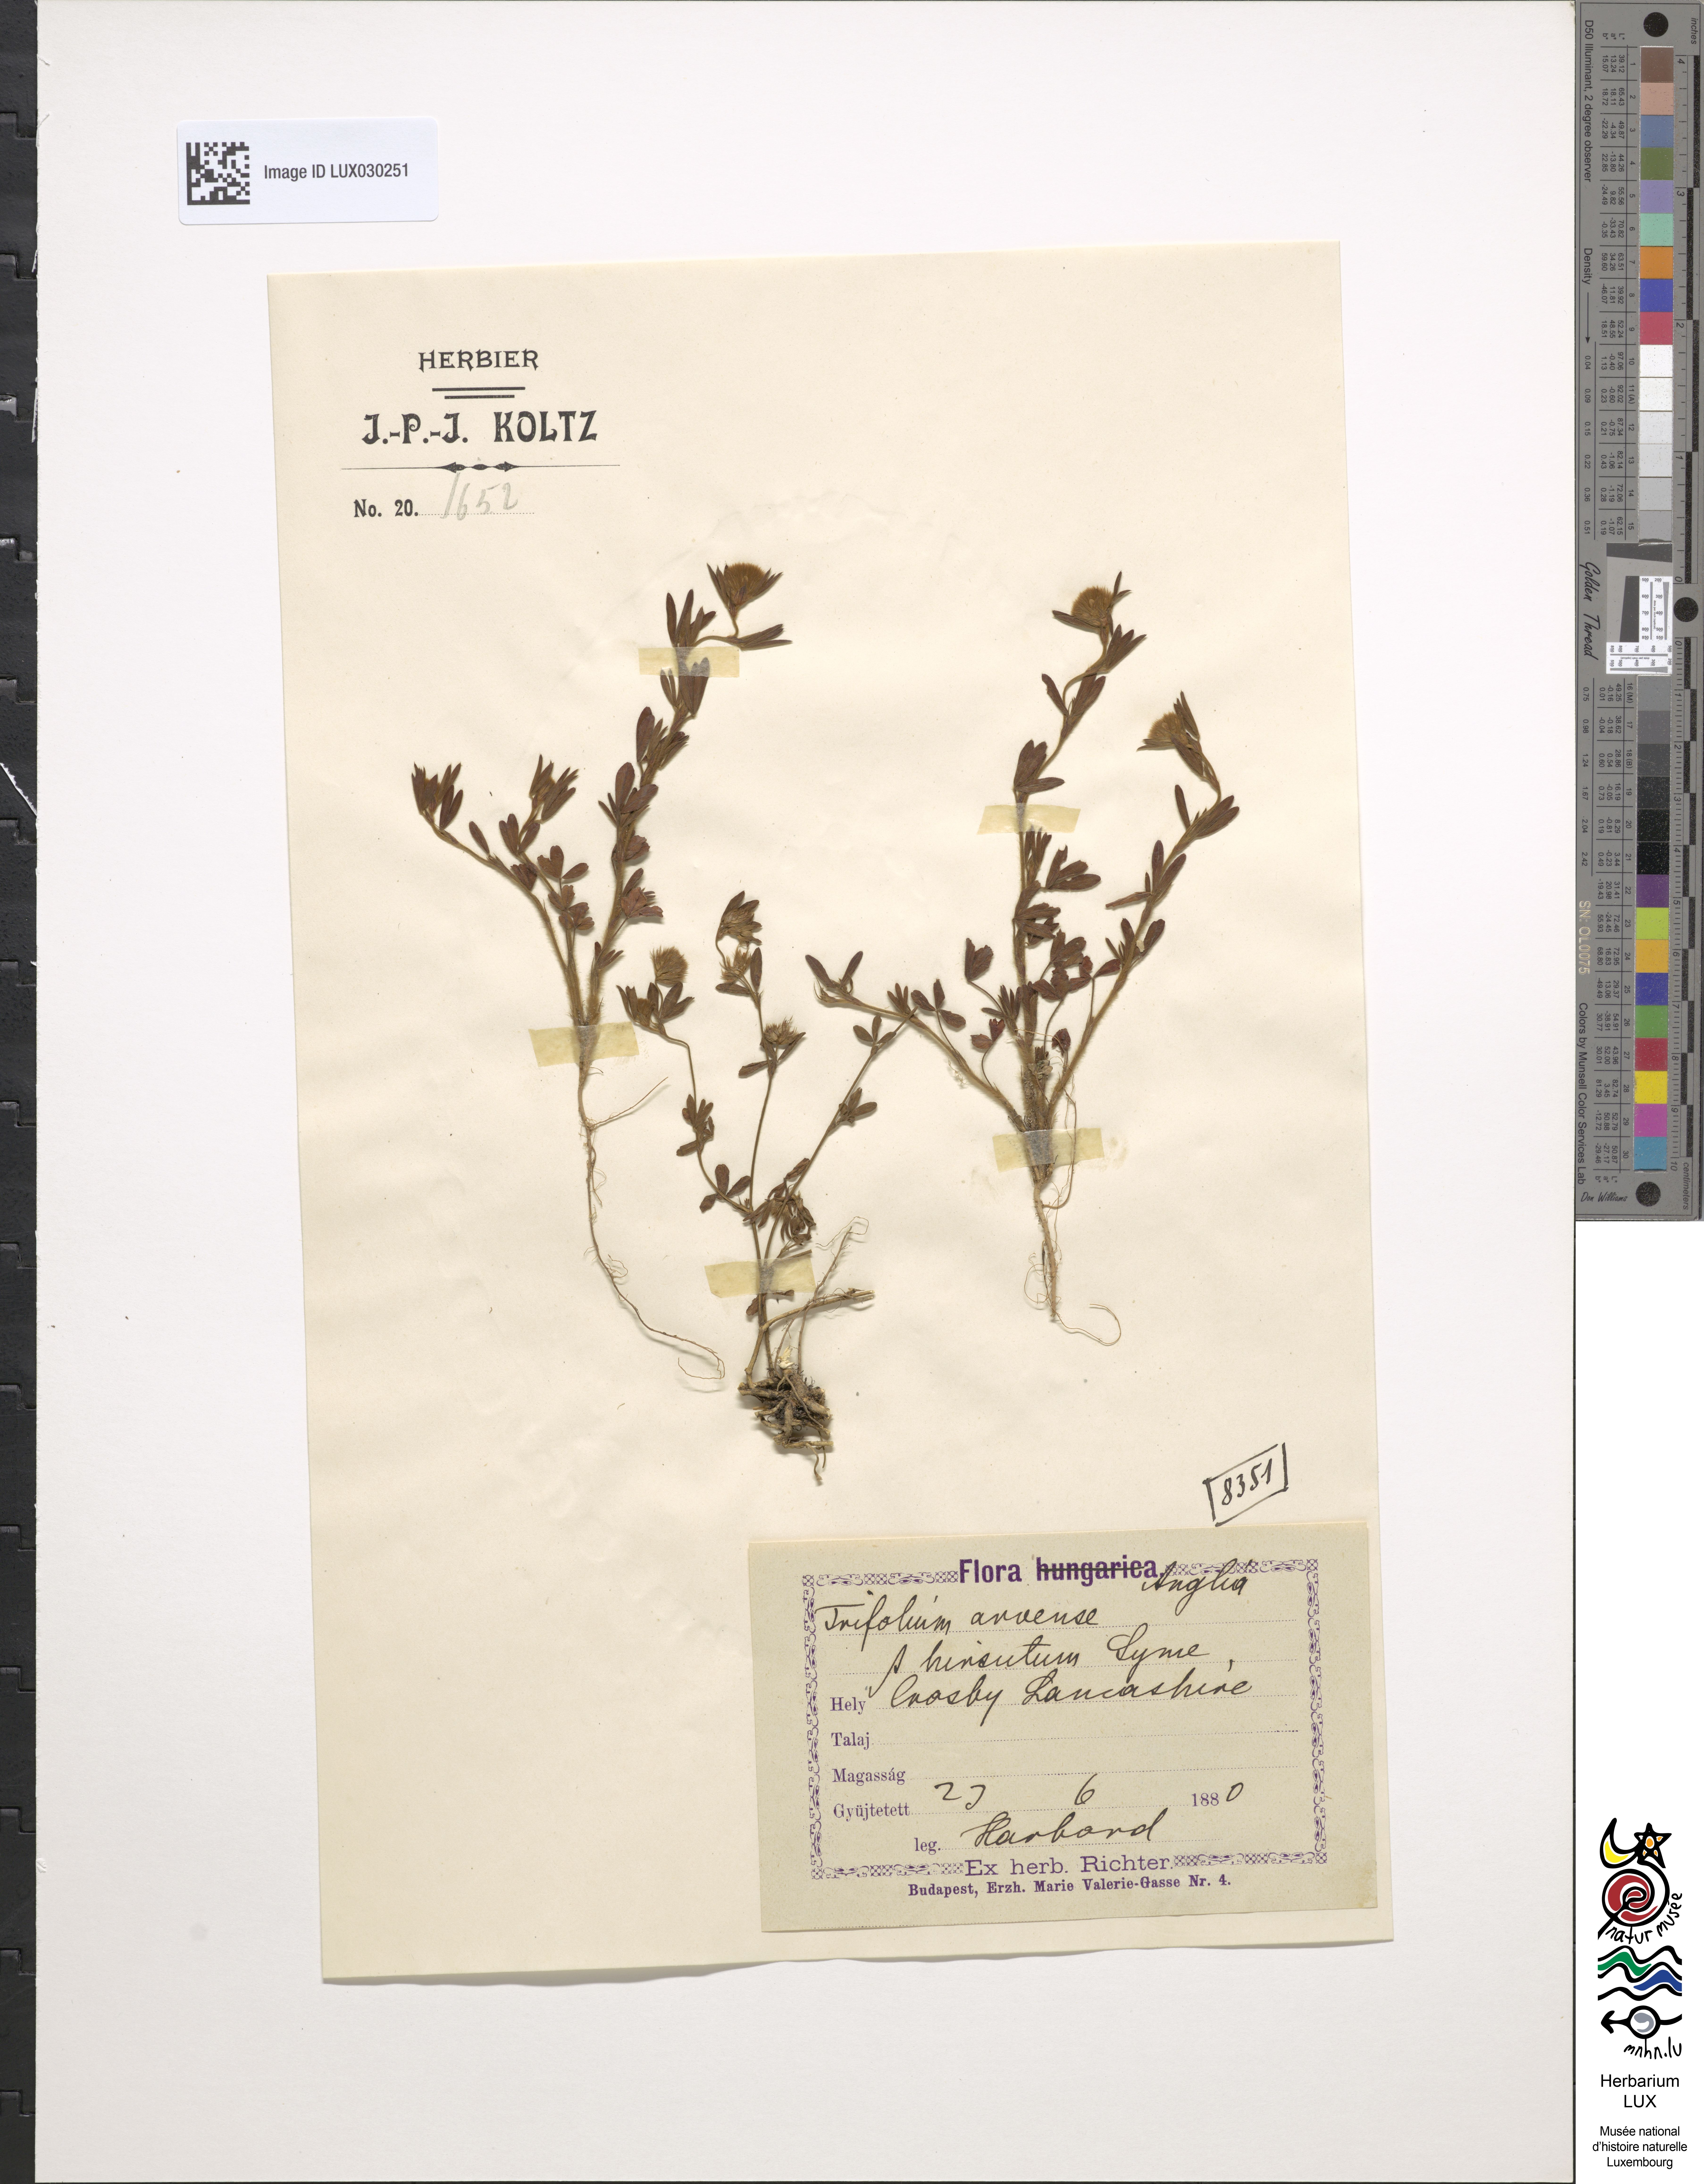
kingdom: Plantae
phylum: Tracheophyta
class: Magnoliopsida
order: Fabales
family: Fabaceae
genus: Trifolium
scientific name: Trifolium arvense
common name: Hare's-foot clover
